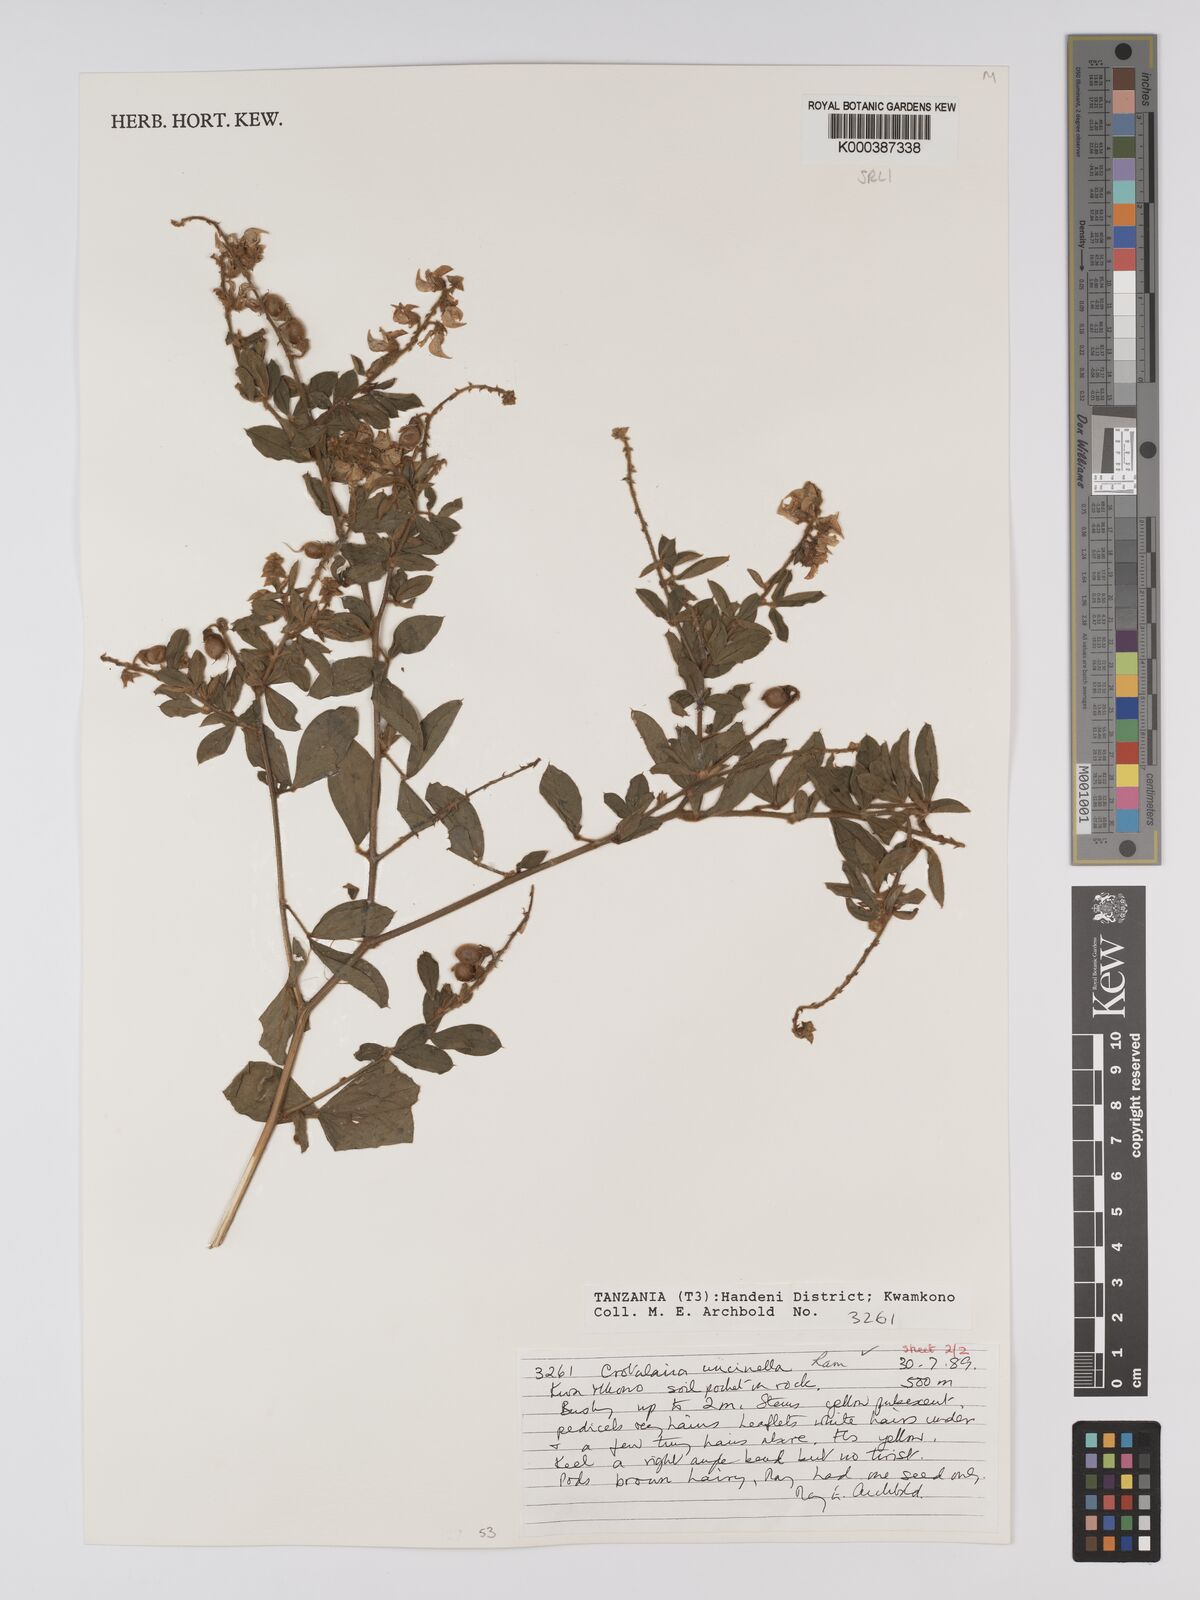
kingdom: Plantae
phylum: Tracheophyta
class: Magnoliopsida
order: Fabales
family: Fabaceae
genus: Crotalaria
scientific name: Crotalaria uncinella
